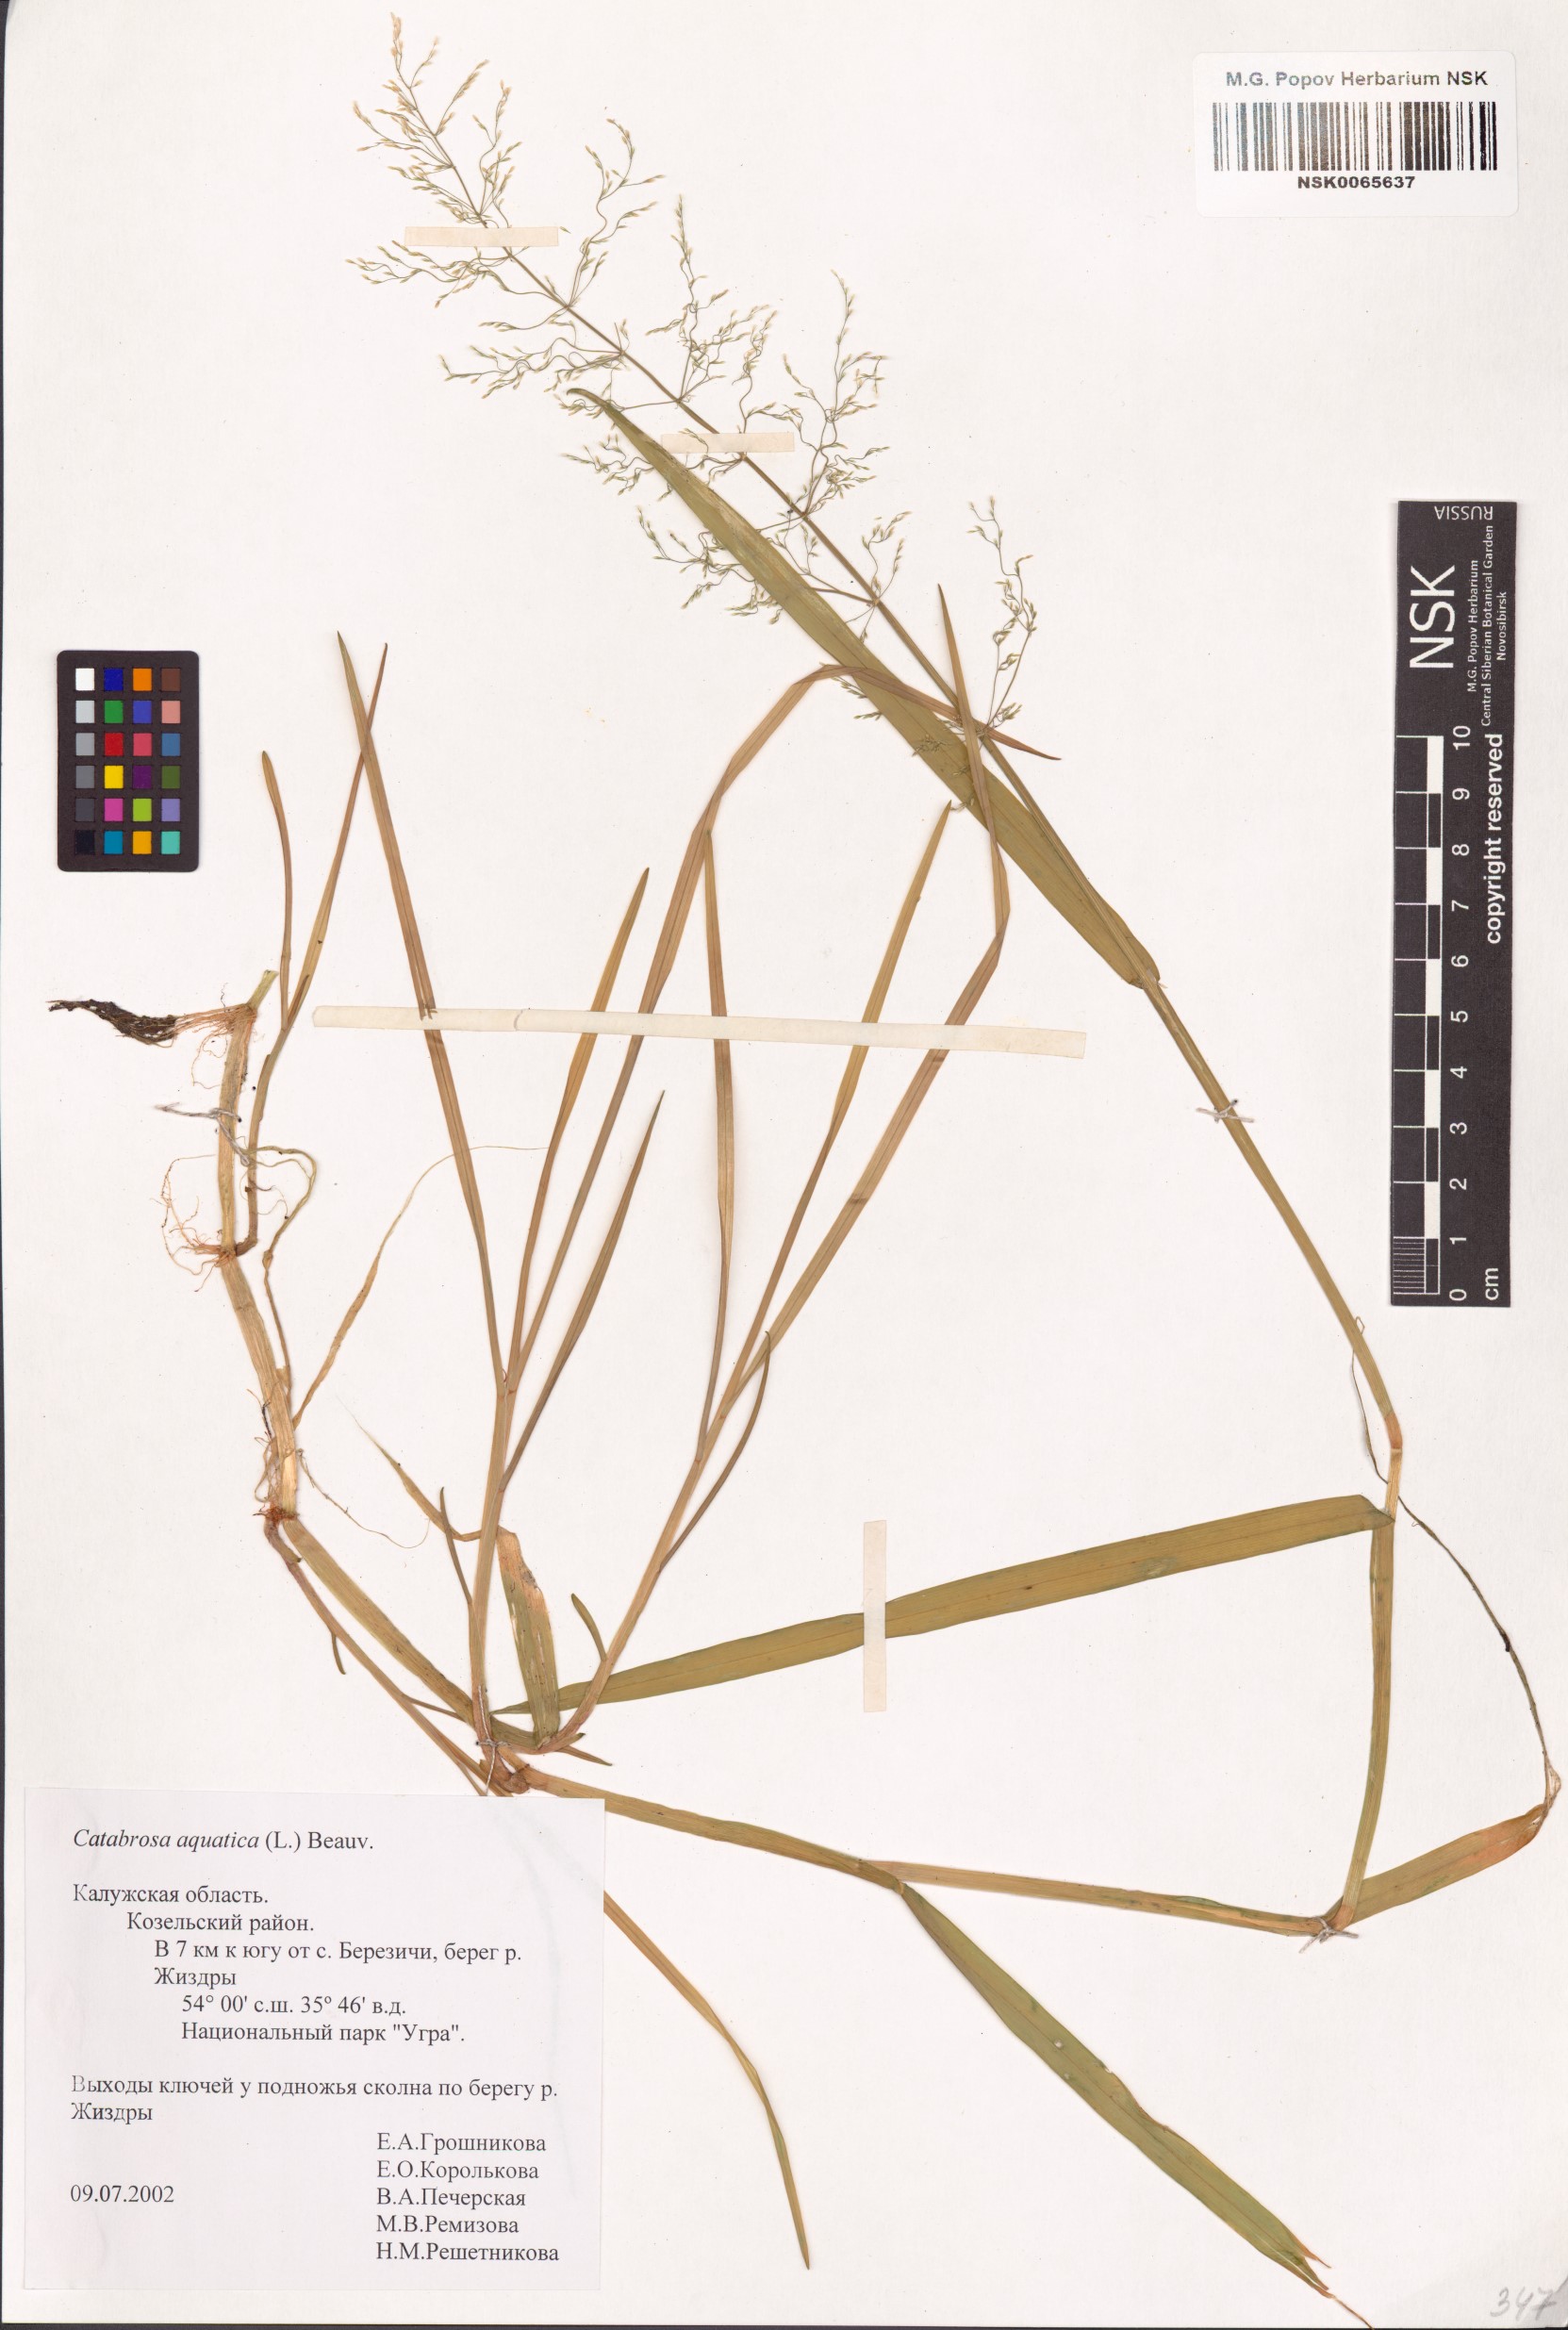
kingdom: Plantae
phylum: Tracheophyta
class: Liliopsida
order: Poales
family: Poaceae
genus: Catabrosa
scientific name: Catabrosa aquatica
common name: Whorl-grass
